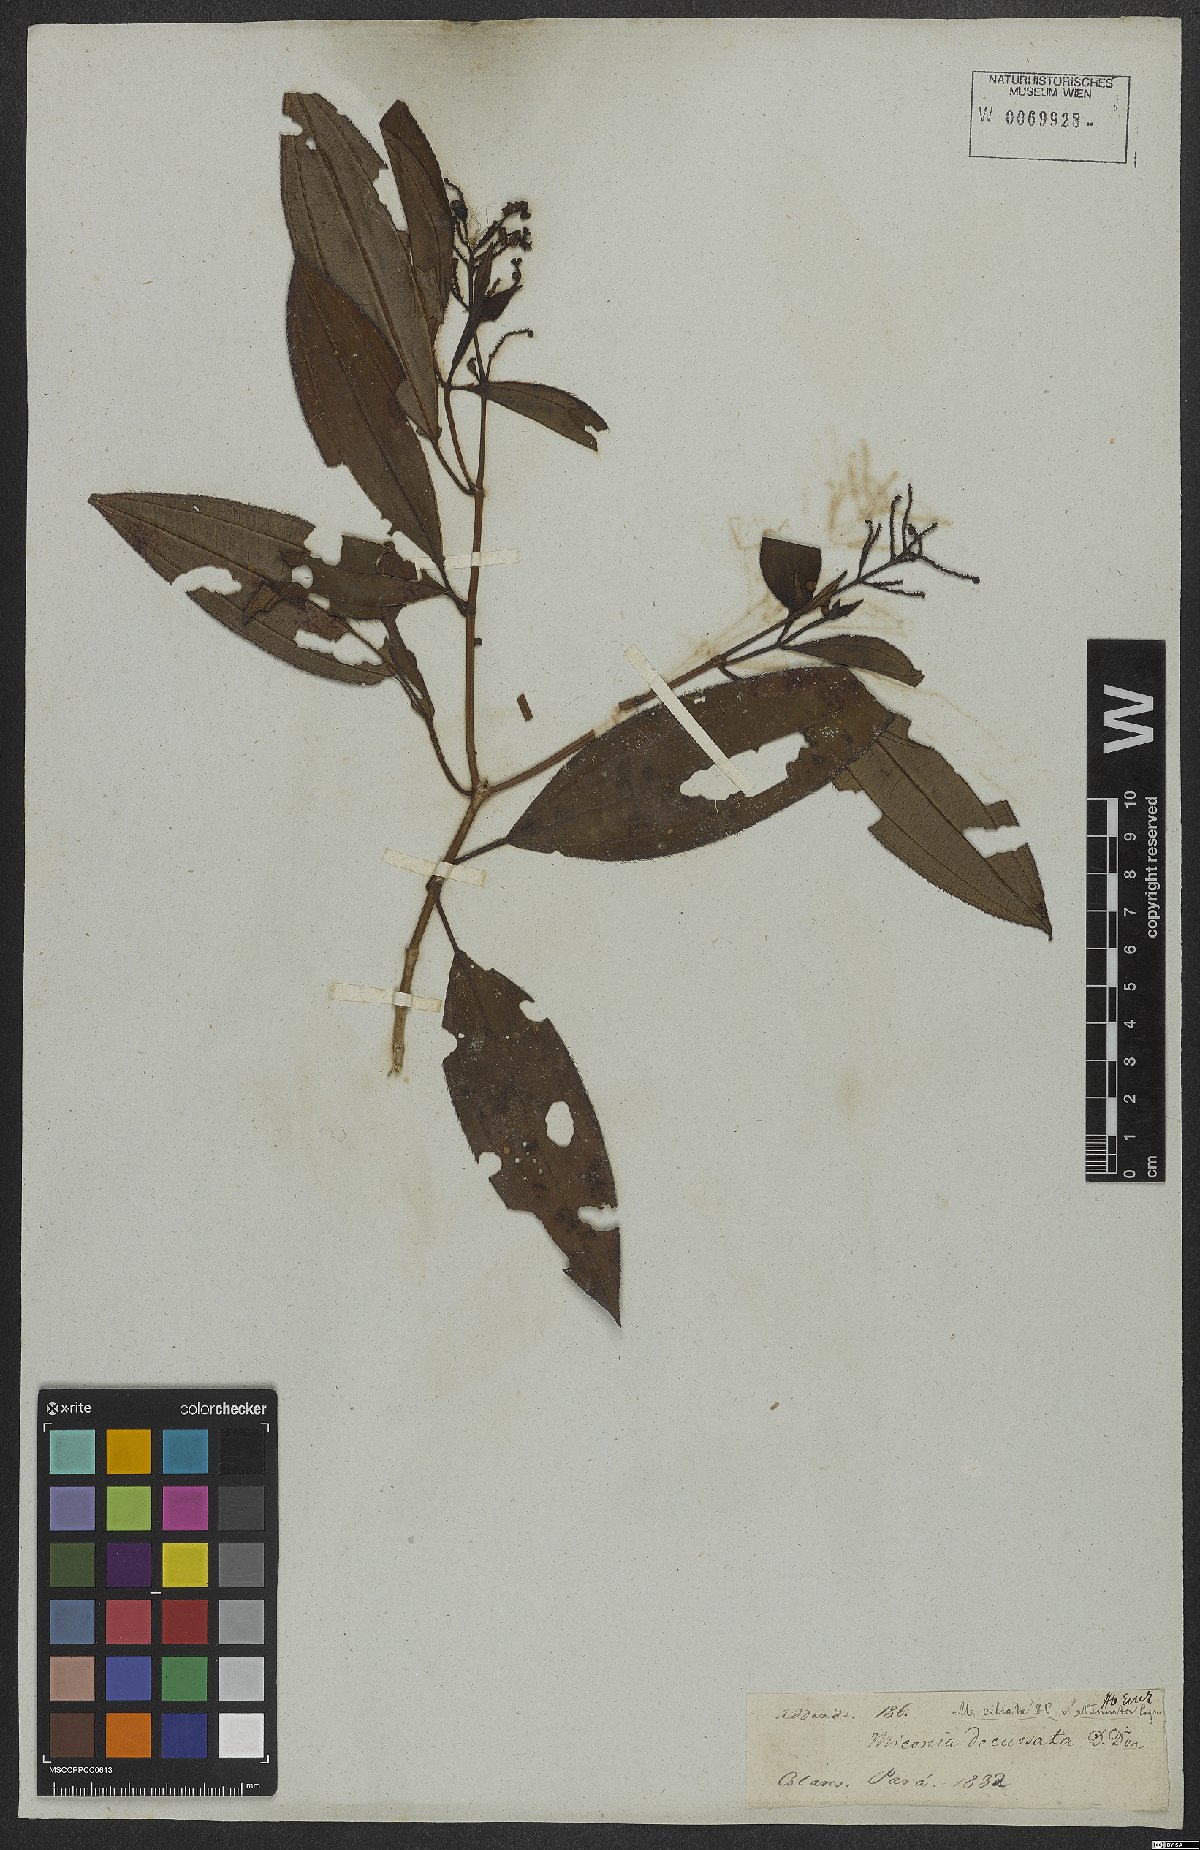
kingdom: Plantae
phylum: Tracheophyta
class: Magnoliopsida
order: Myrtales
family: Melastomataceae
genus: Miconia
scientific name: Miconia ciliata
